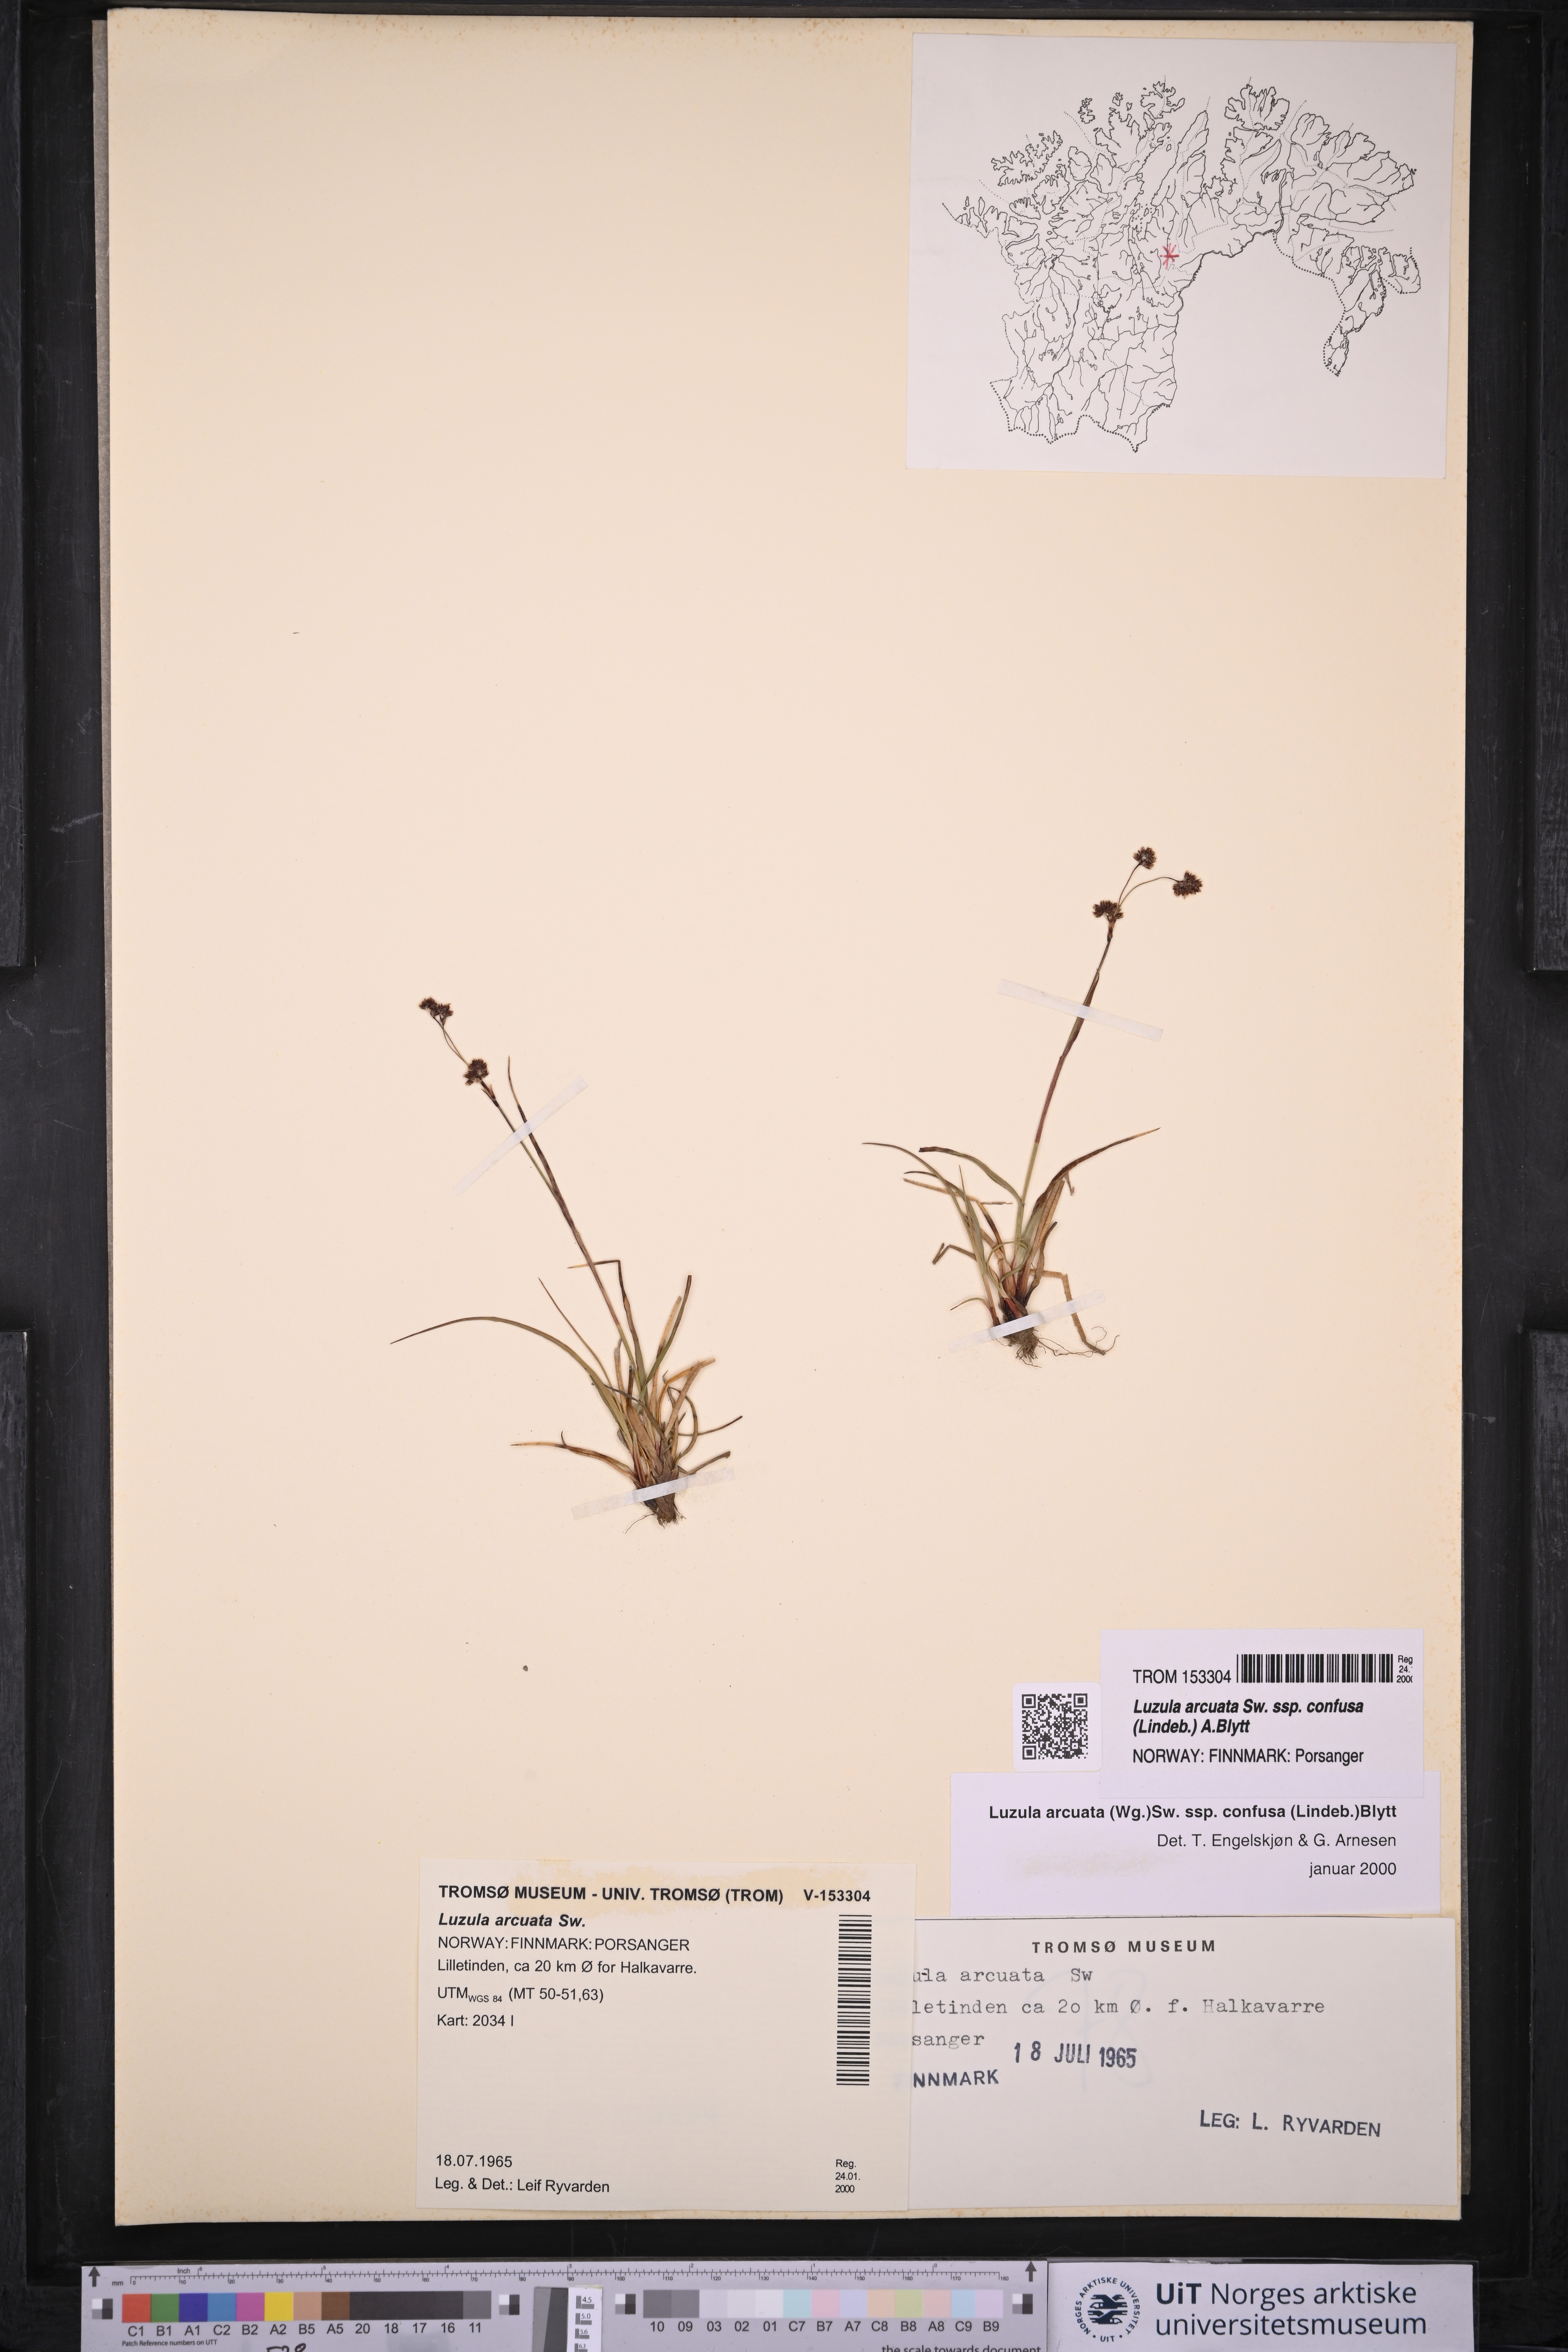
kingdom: Plantae
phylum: Tracheophyta
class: Liliopsida
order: Poales
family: Juncaceae
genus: Luzula
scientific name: Luzula confusa
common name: Northern wood rush
